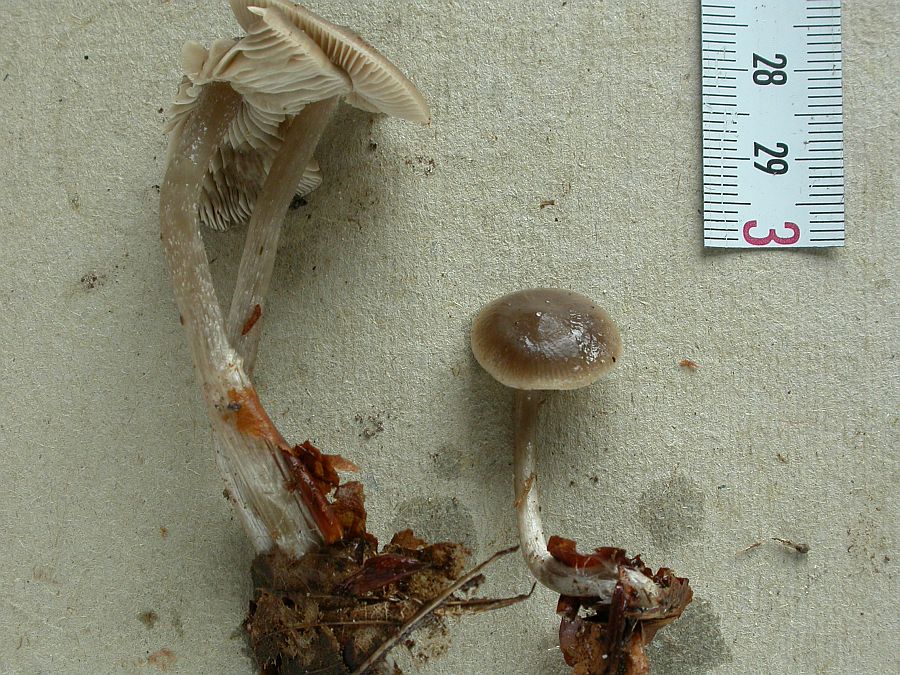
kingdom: Fungi
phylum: Basidiomycota
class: Agaricomycetes
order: Agaricales
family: Lyophyllaceae
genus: Myochromella
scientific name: Myochromella boudieri
